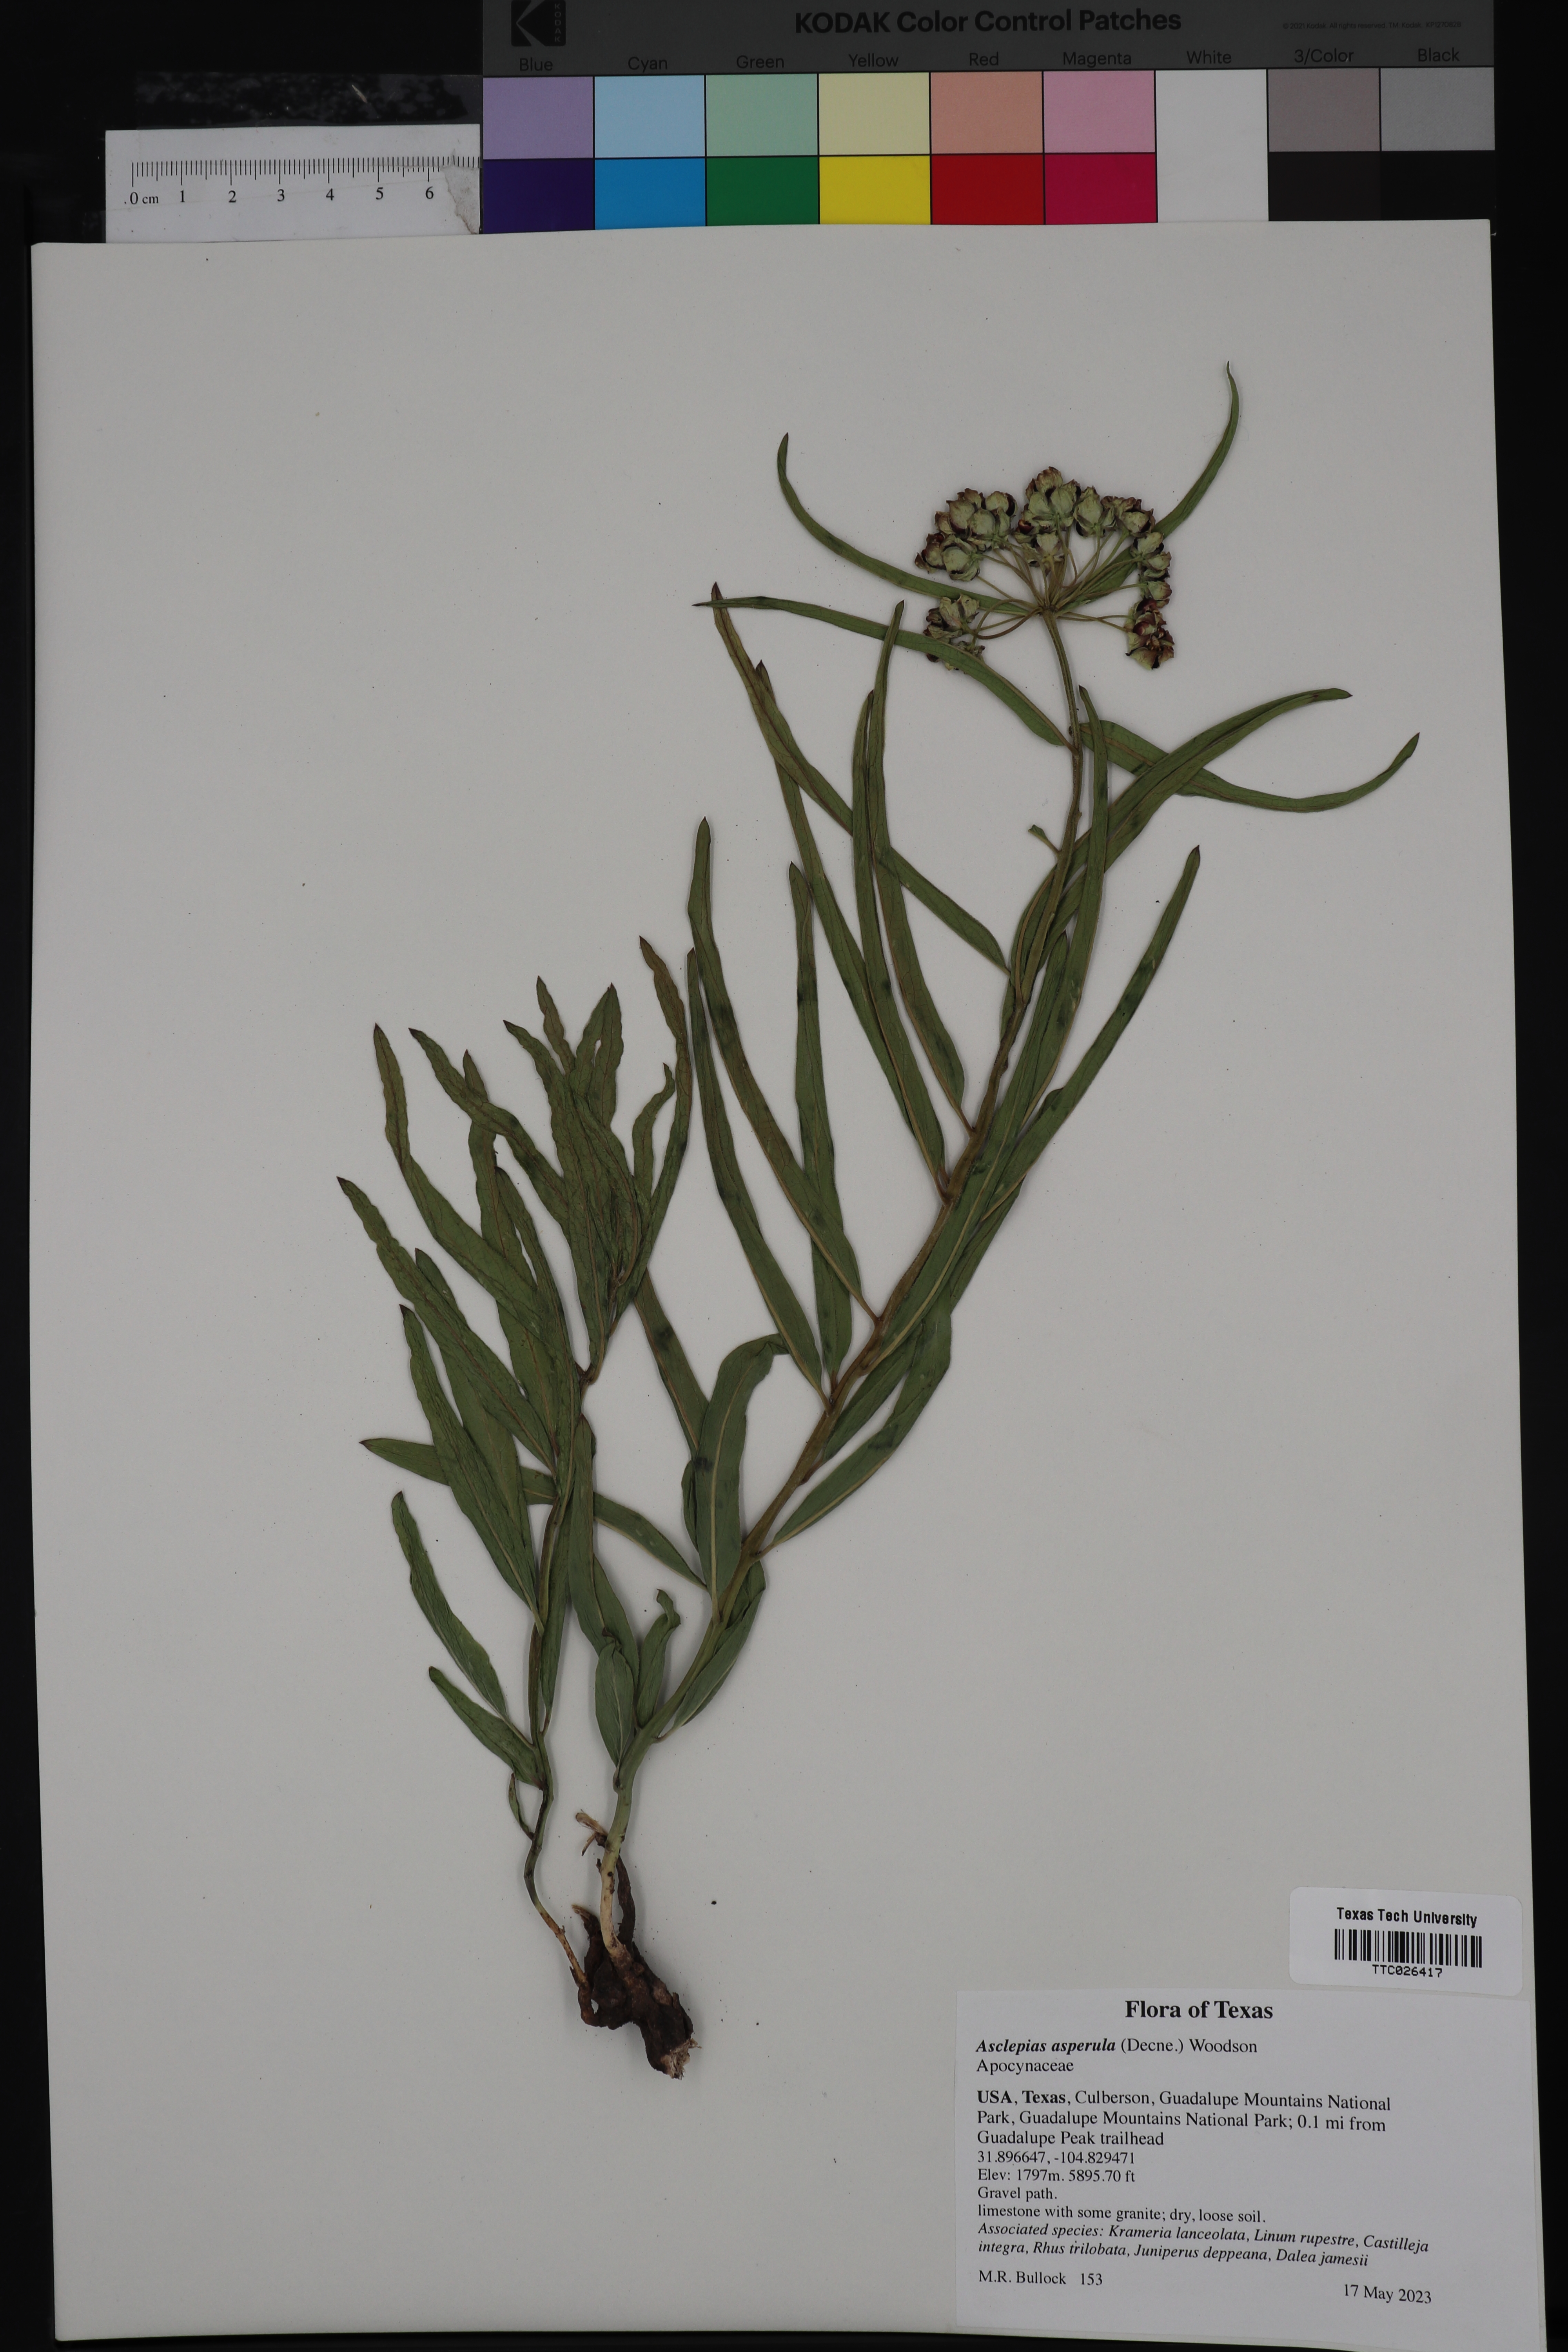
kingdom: Plantae
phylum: Tracheophyta
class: Magnoliopsida
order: Gentianales
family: Apocynaceae
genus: Asclepias
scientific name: Asclepias asperula
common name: Antelope horns
